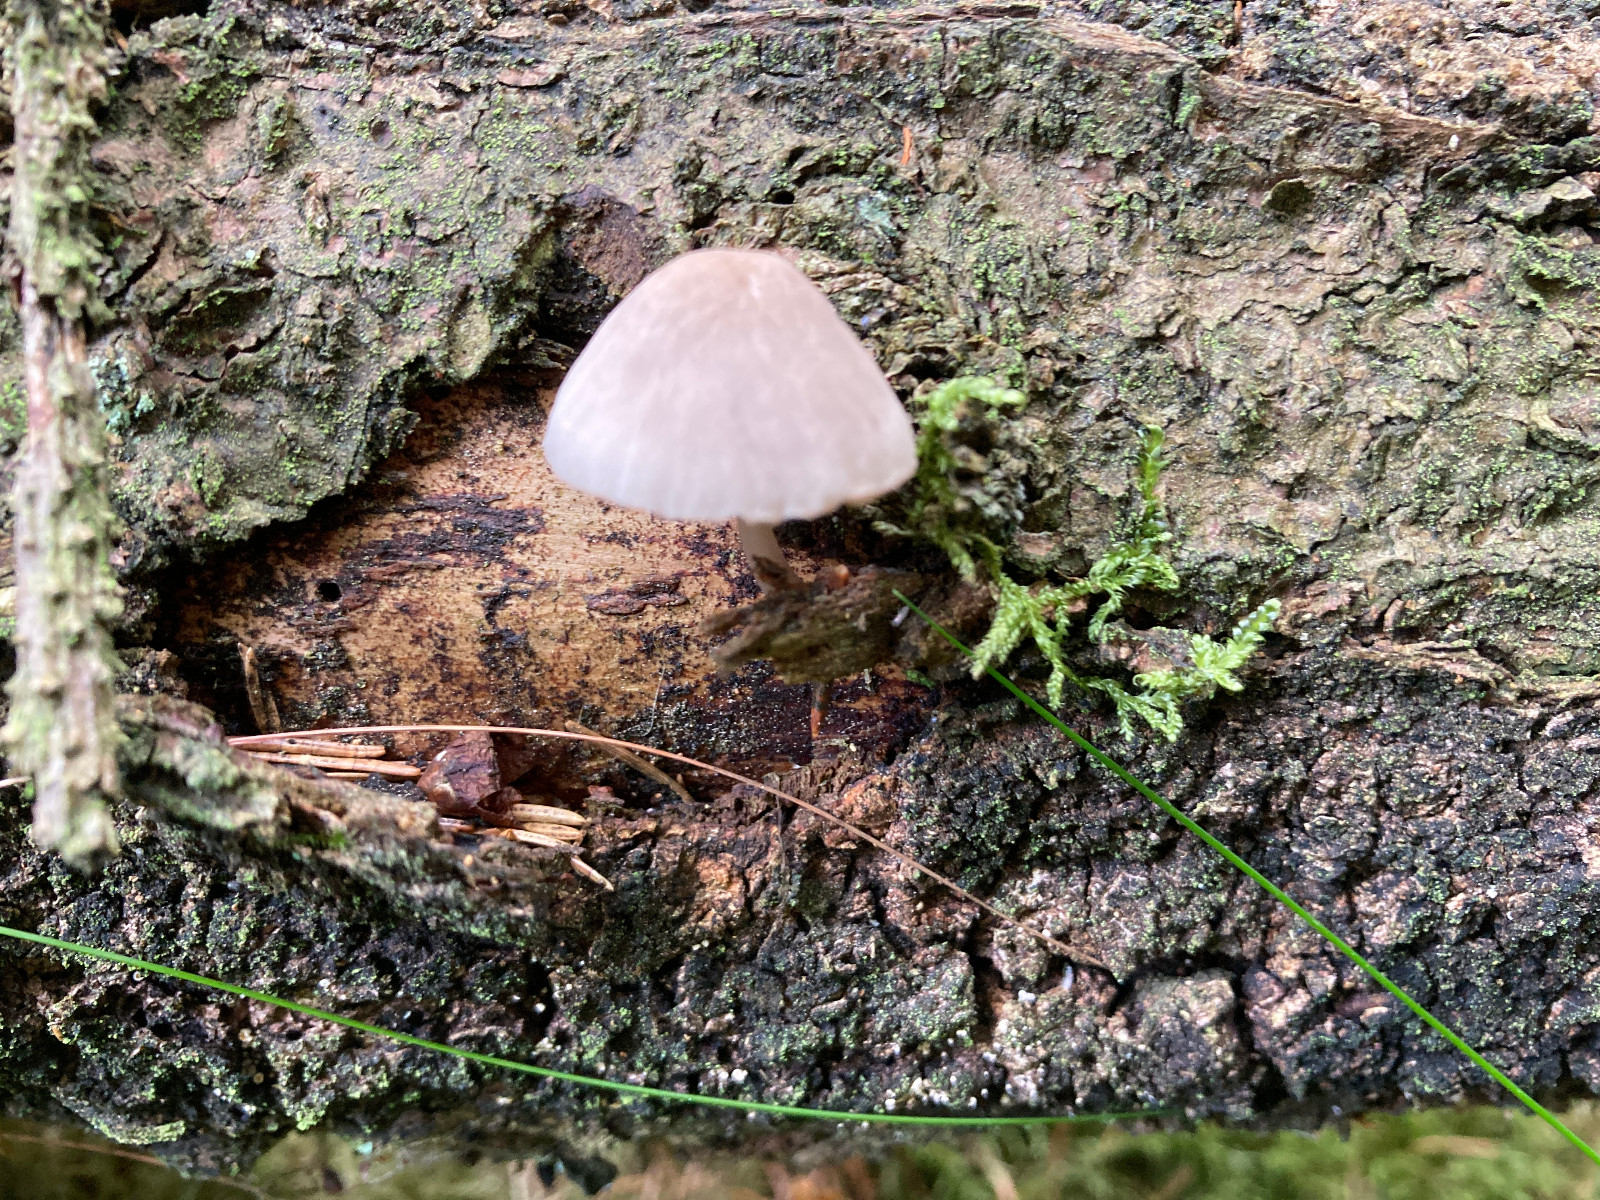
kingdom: Fungi
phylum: Basidiomycota
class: Agaricomycetes
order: Agaricales
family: Mycenaceae
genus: Mycena
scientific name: Mycena rubromarginata
